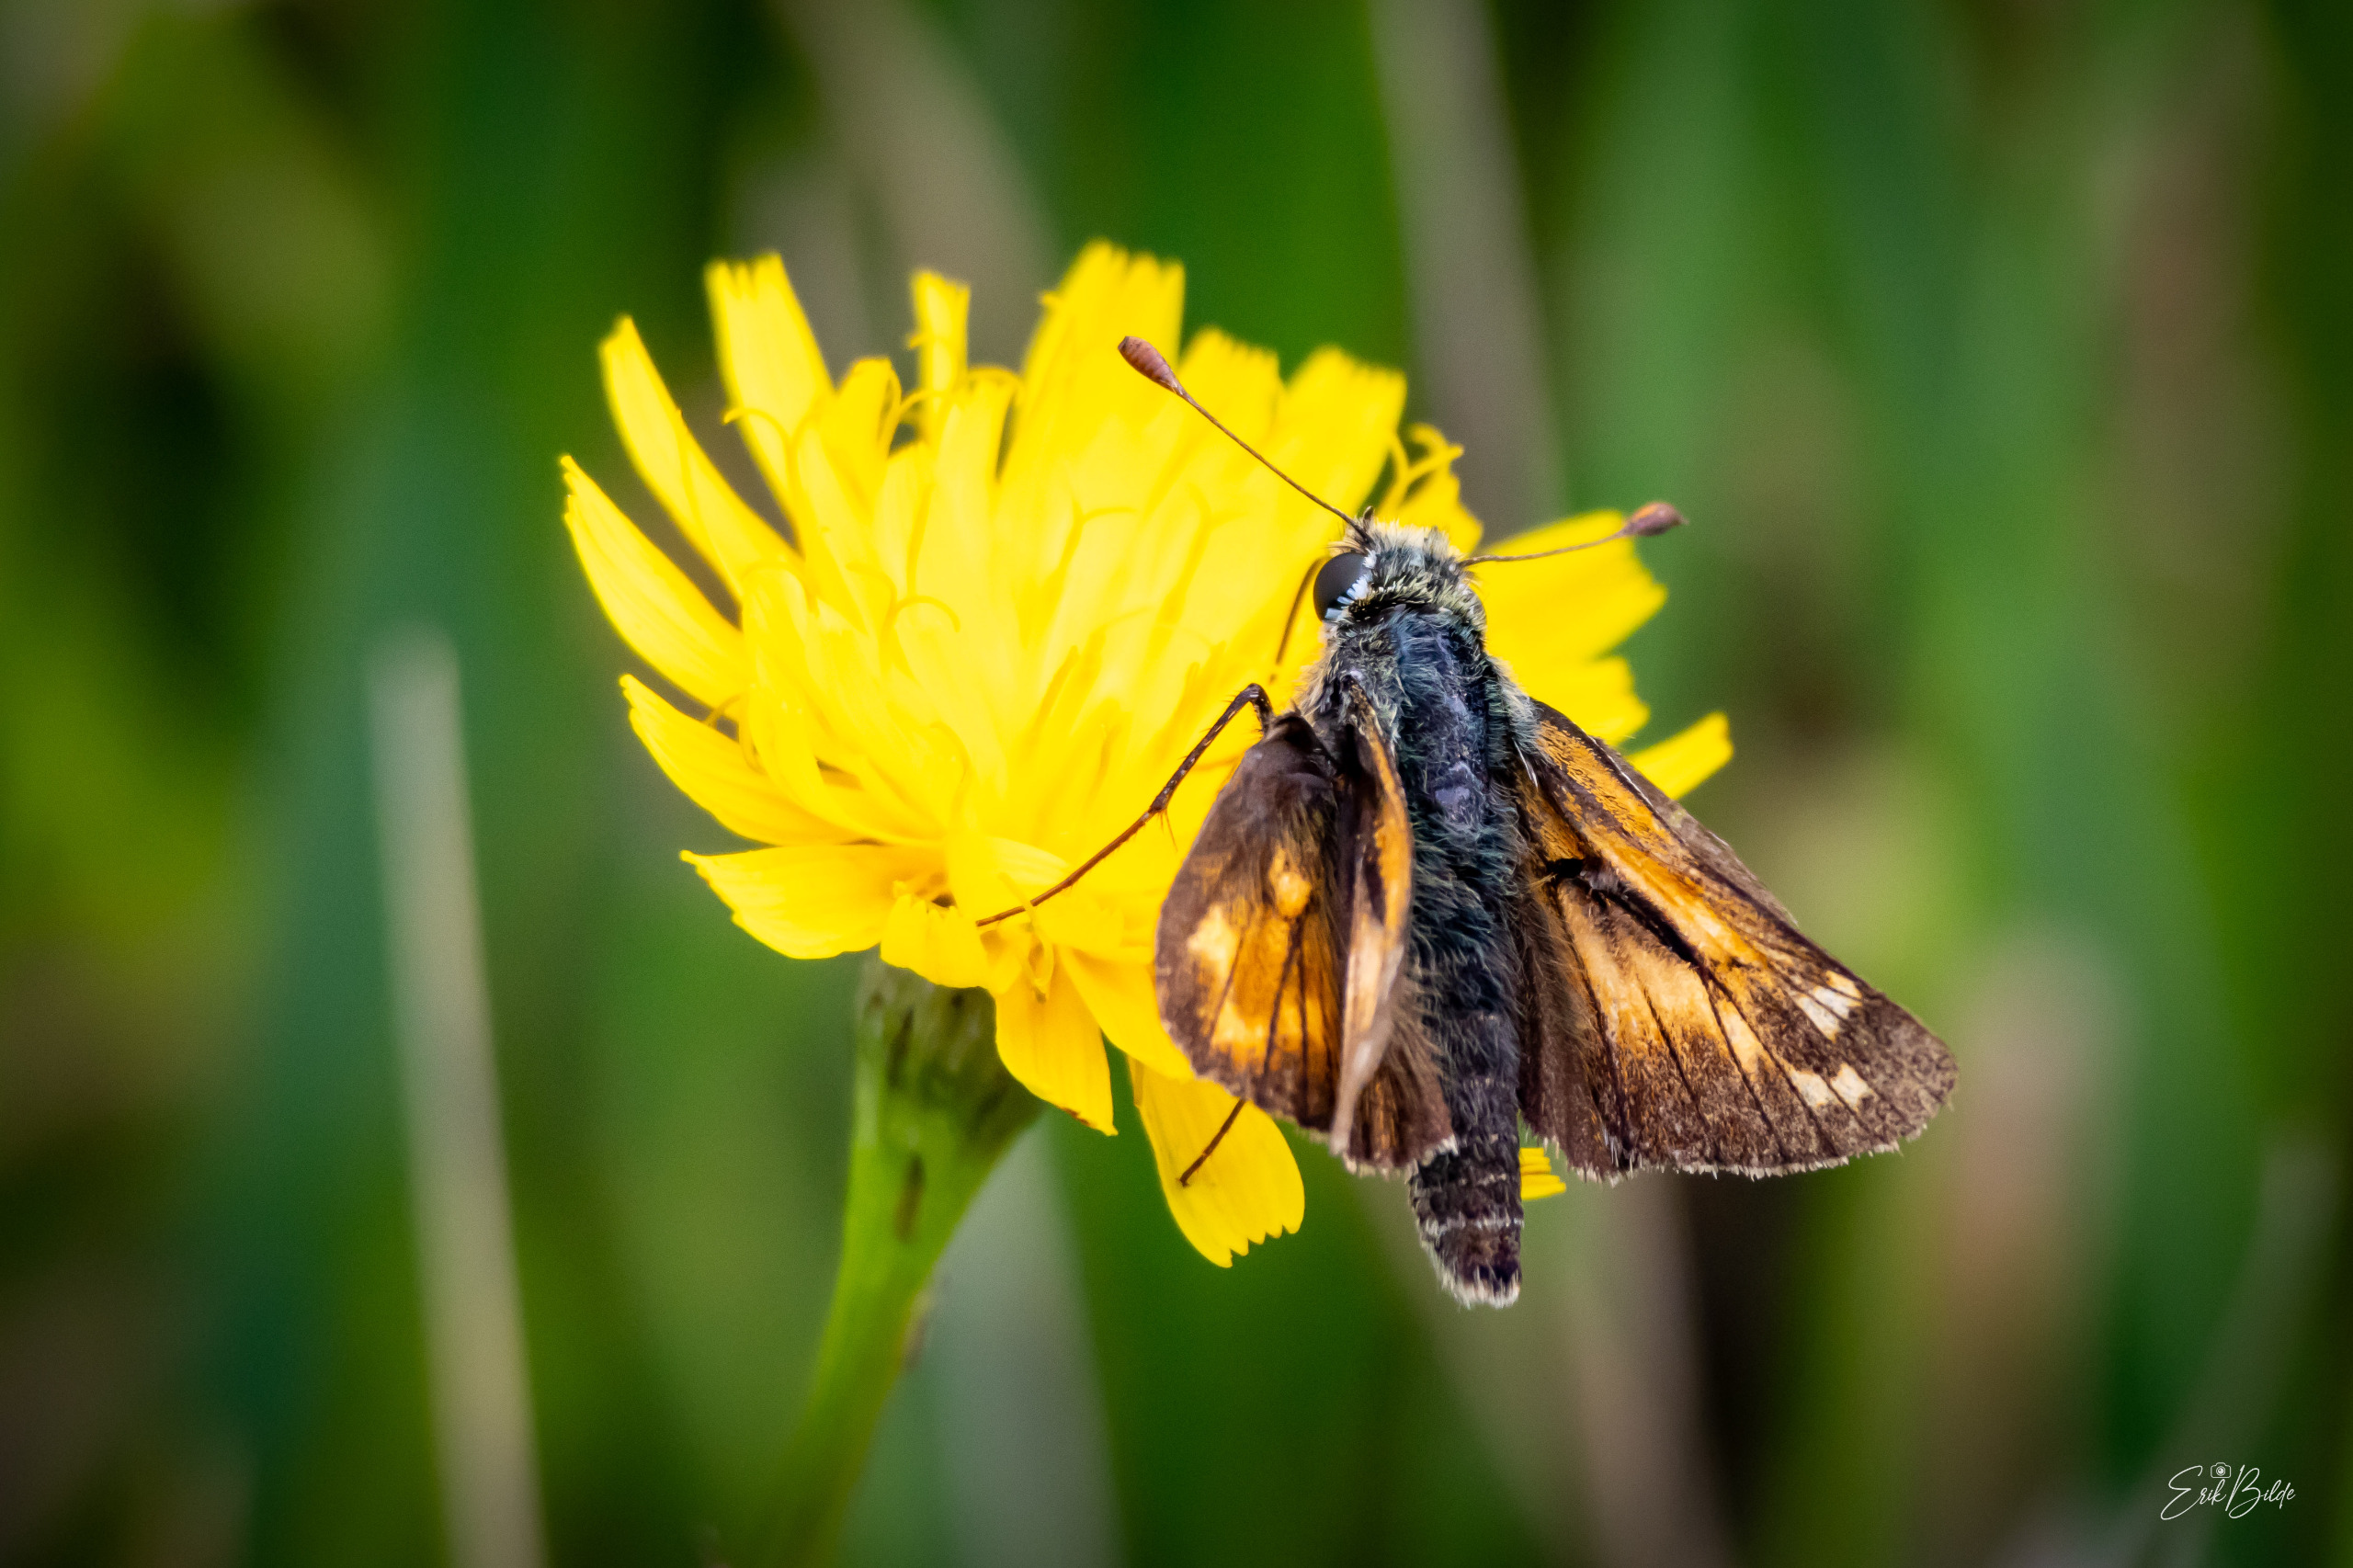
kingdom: Animalia
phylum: Arthropoda
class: Insecta
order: Lepidoptera
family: Hesperiidae
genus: Hesperia
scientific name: Hesperia comma
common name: Kommabredpande
